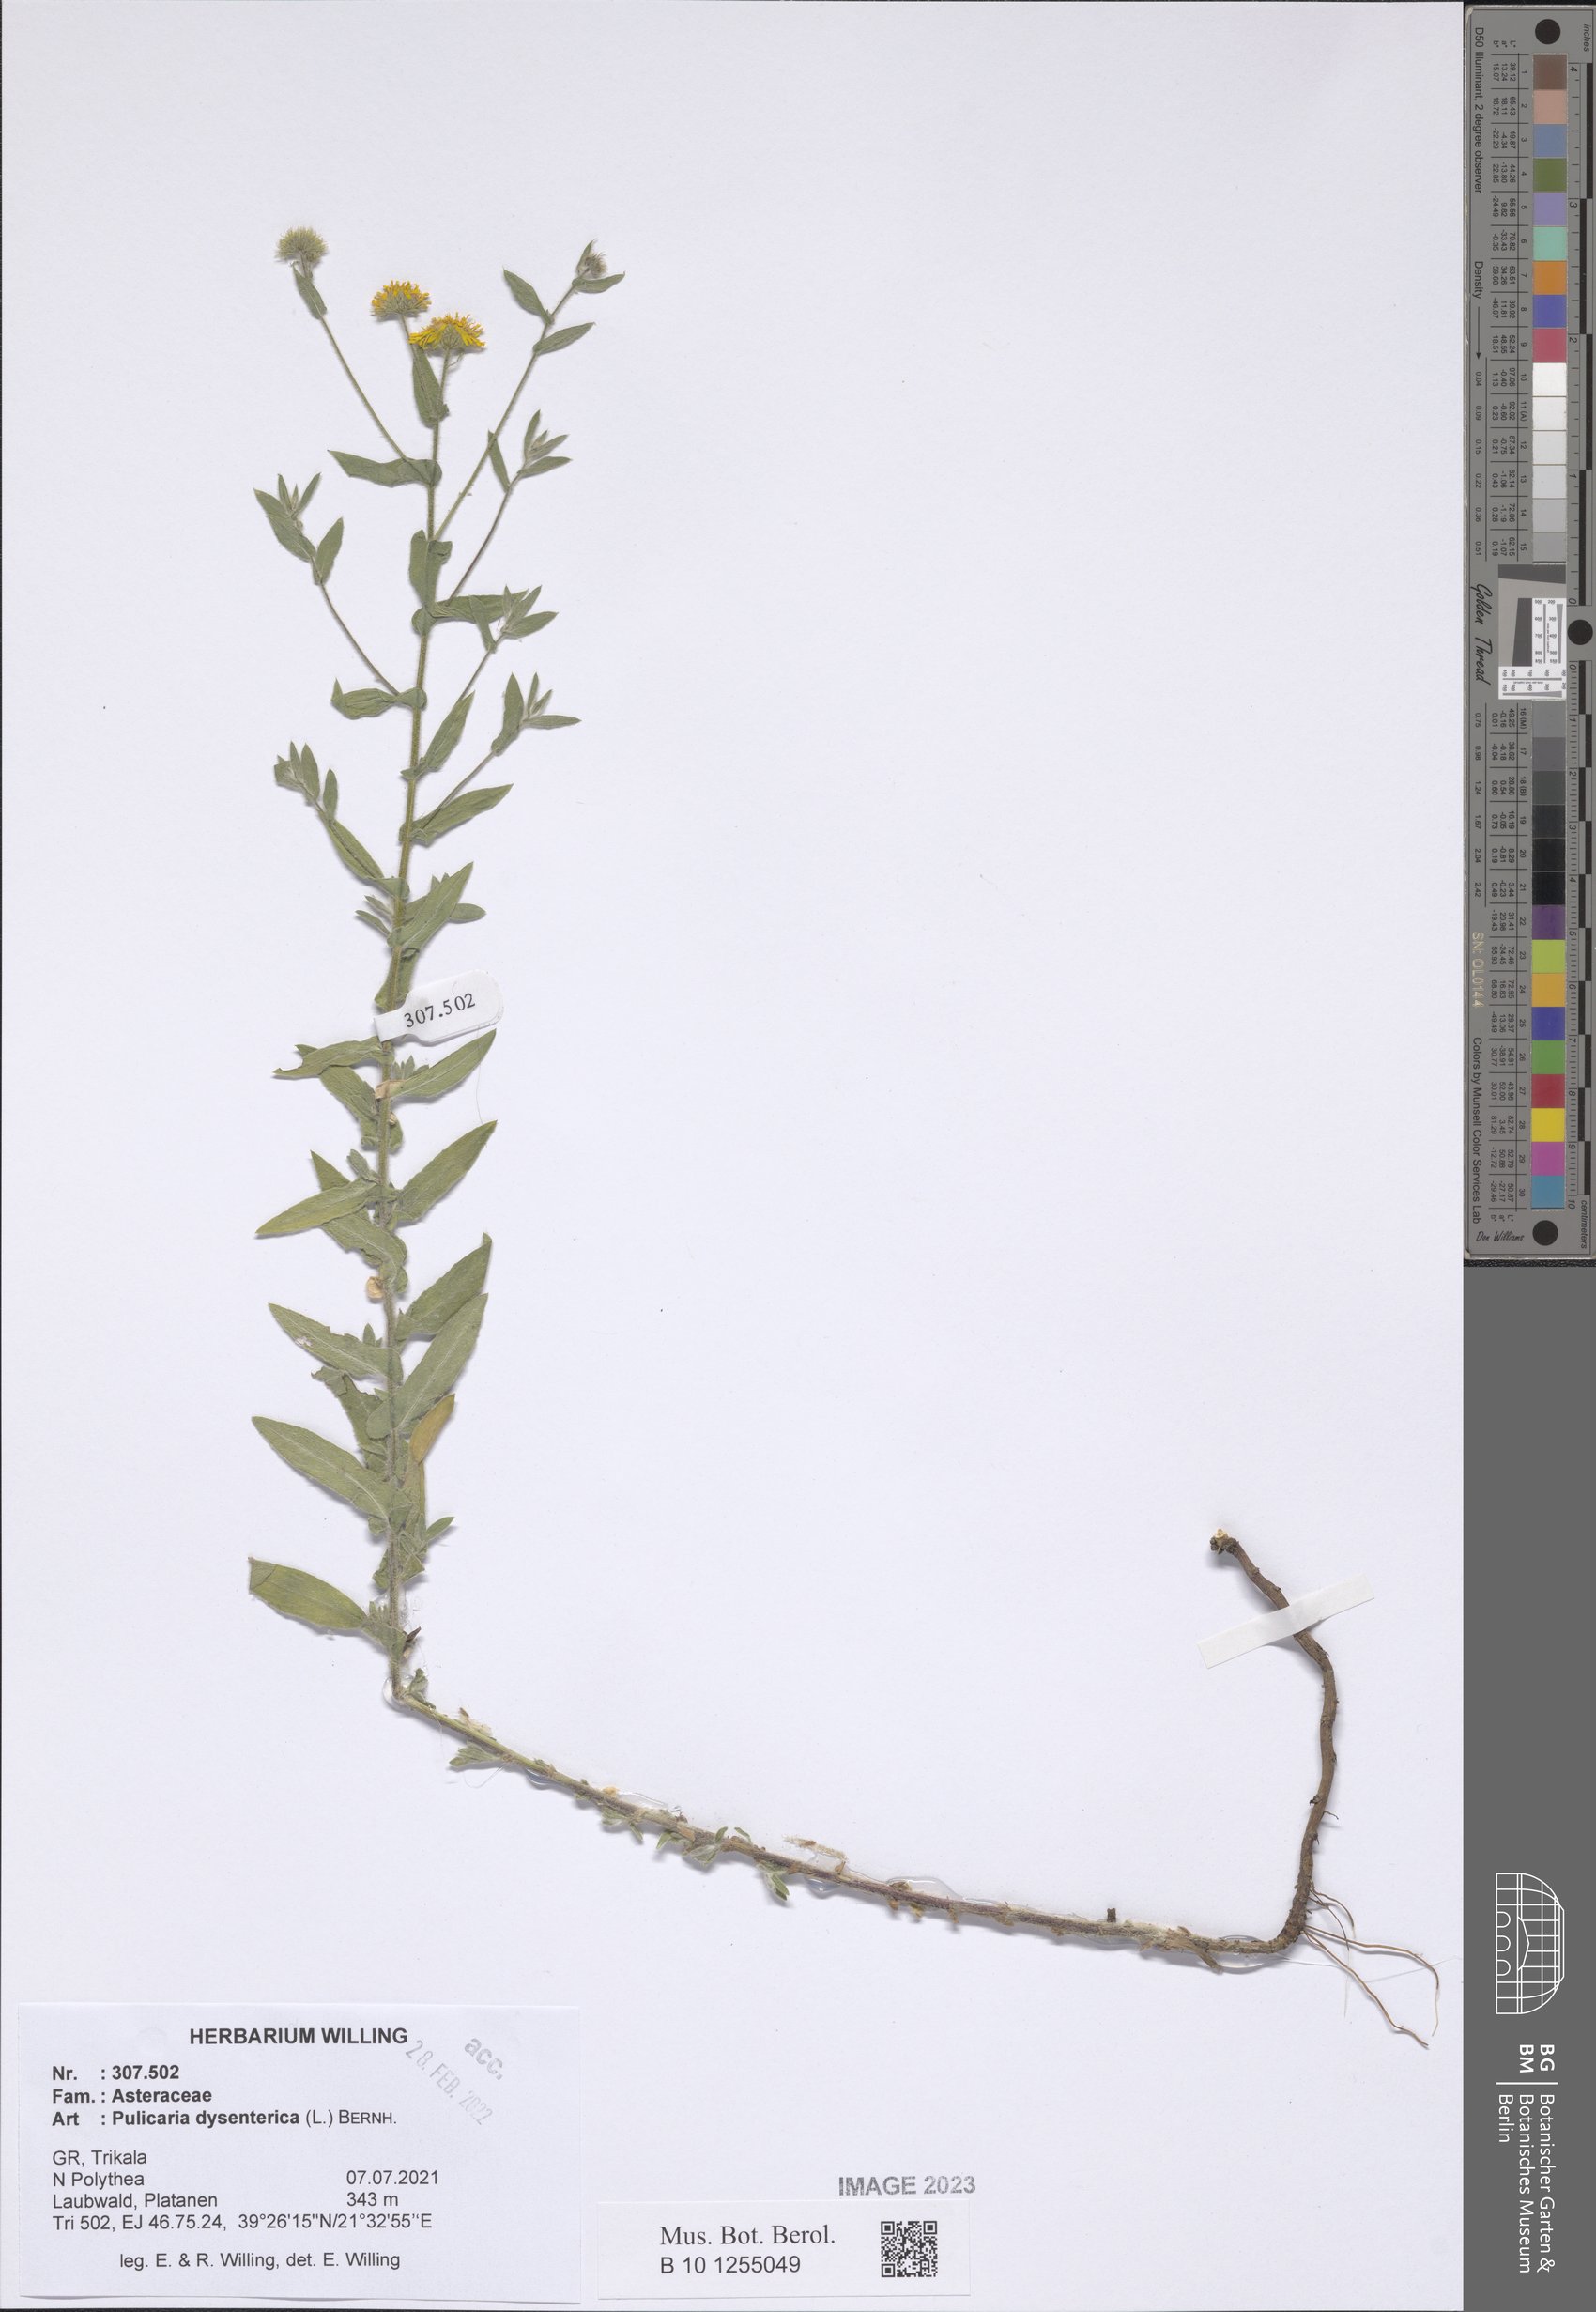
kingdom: Plantae
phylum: Tracheophyta
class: Magnoliopsida
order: Asterales
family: Asteraceae
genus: Pulicaria
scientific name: Pulicaria dysenterica
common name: Common fleabane
